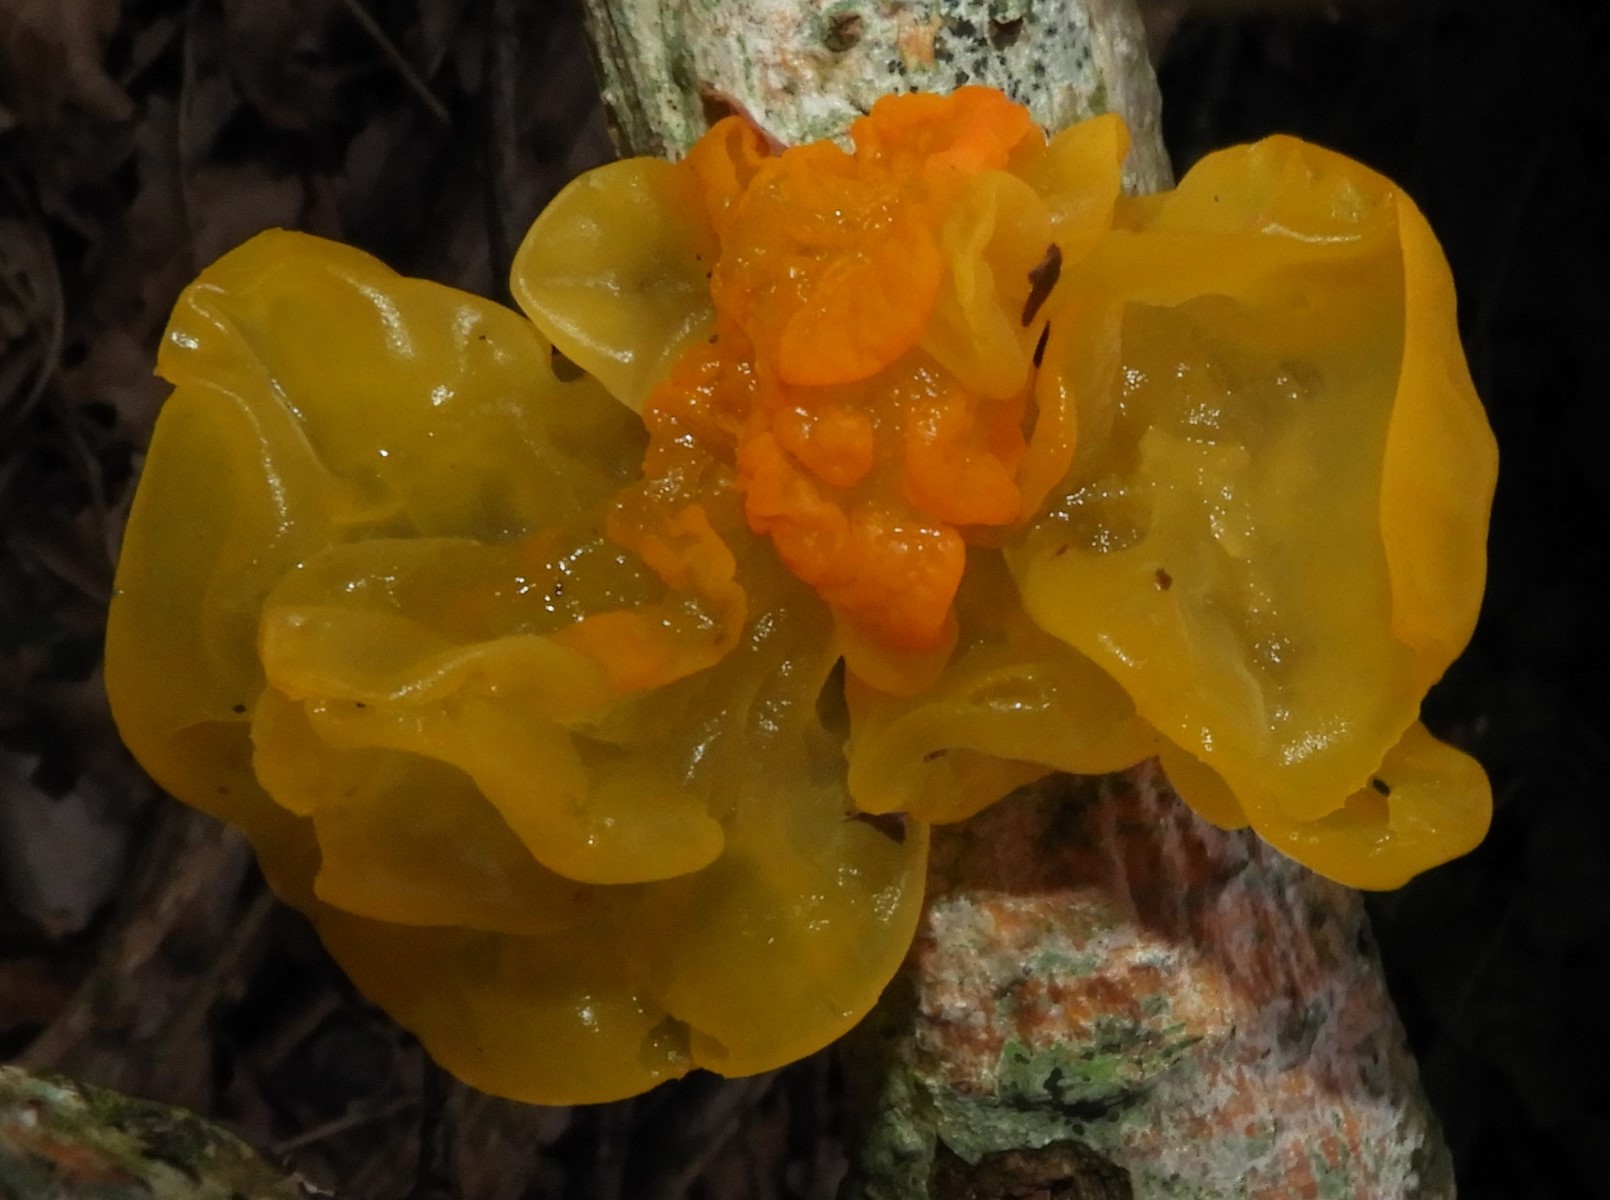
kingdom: Fungi
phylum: Basidiomycota
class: Tremellomycetes
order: Tremellales
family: Tremellaceae
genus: Tremella
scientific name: Tremella mesenterica
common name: gul bævresvamp
